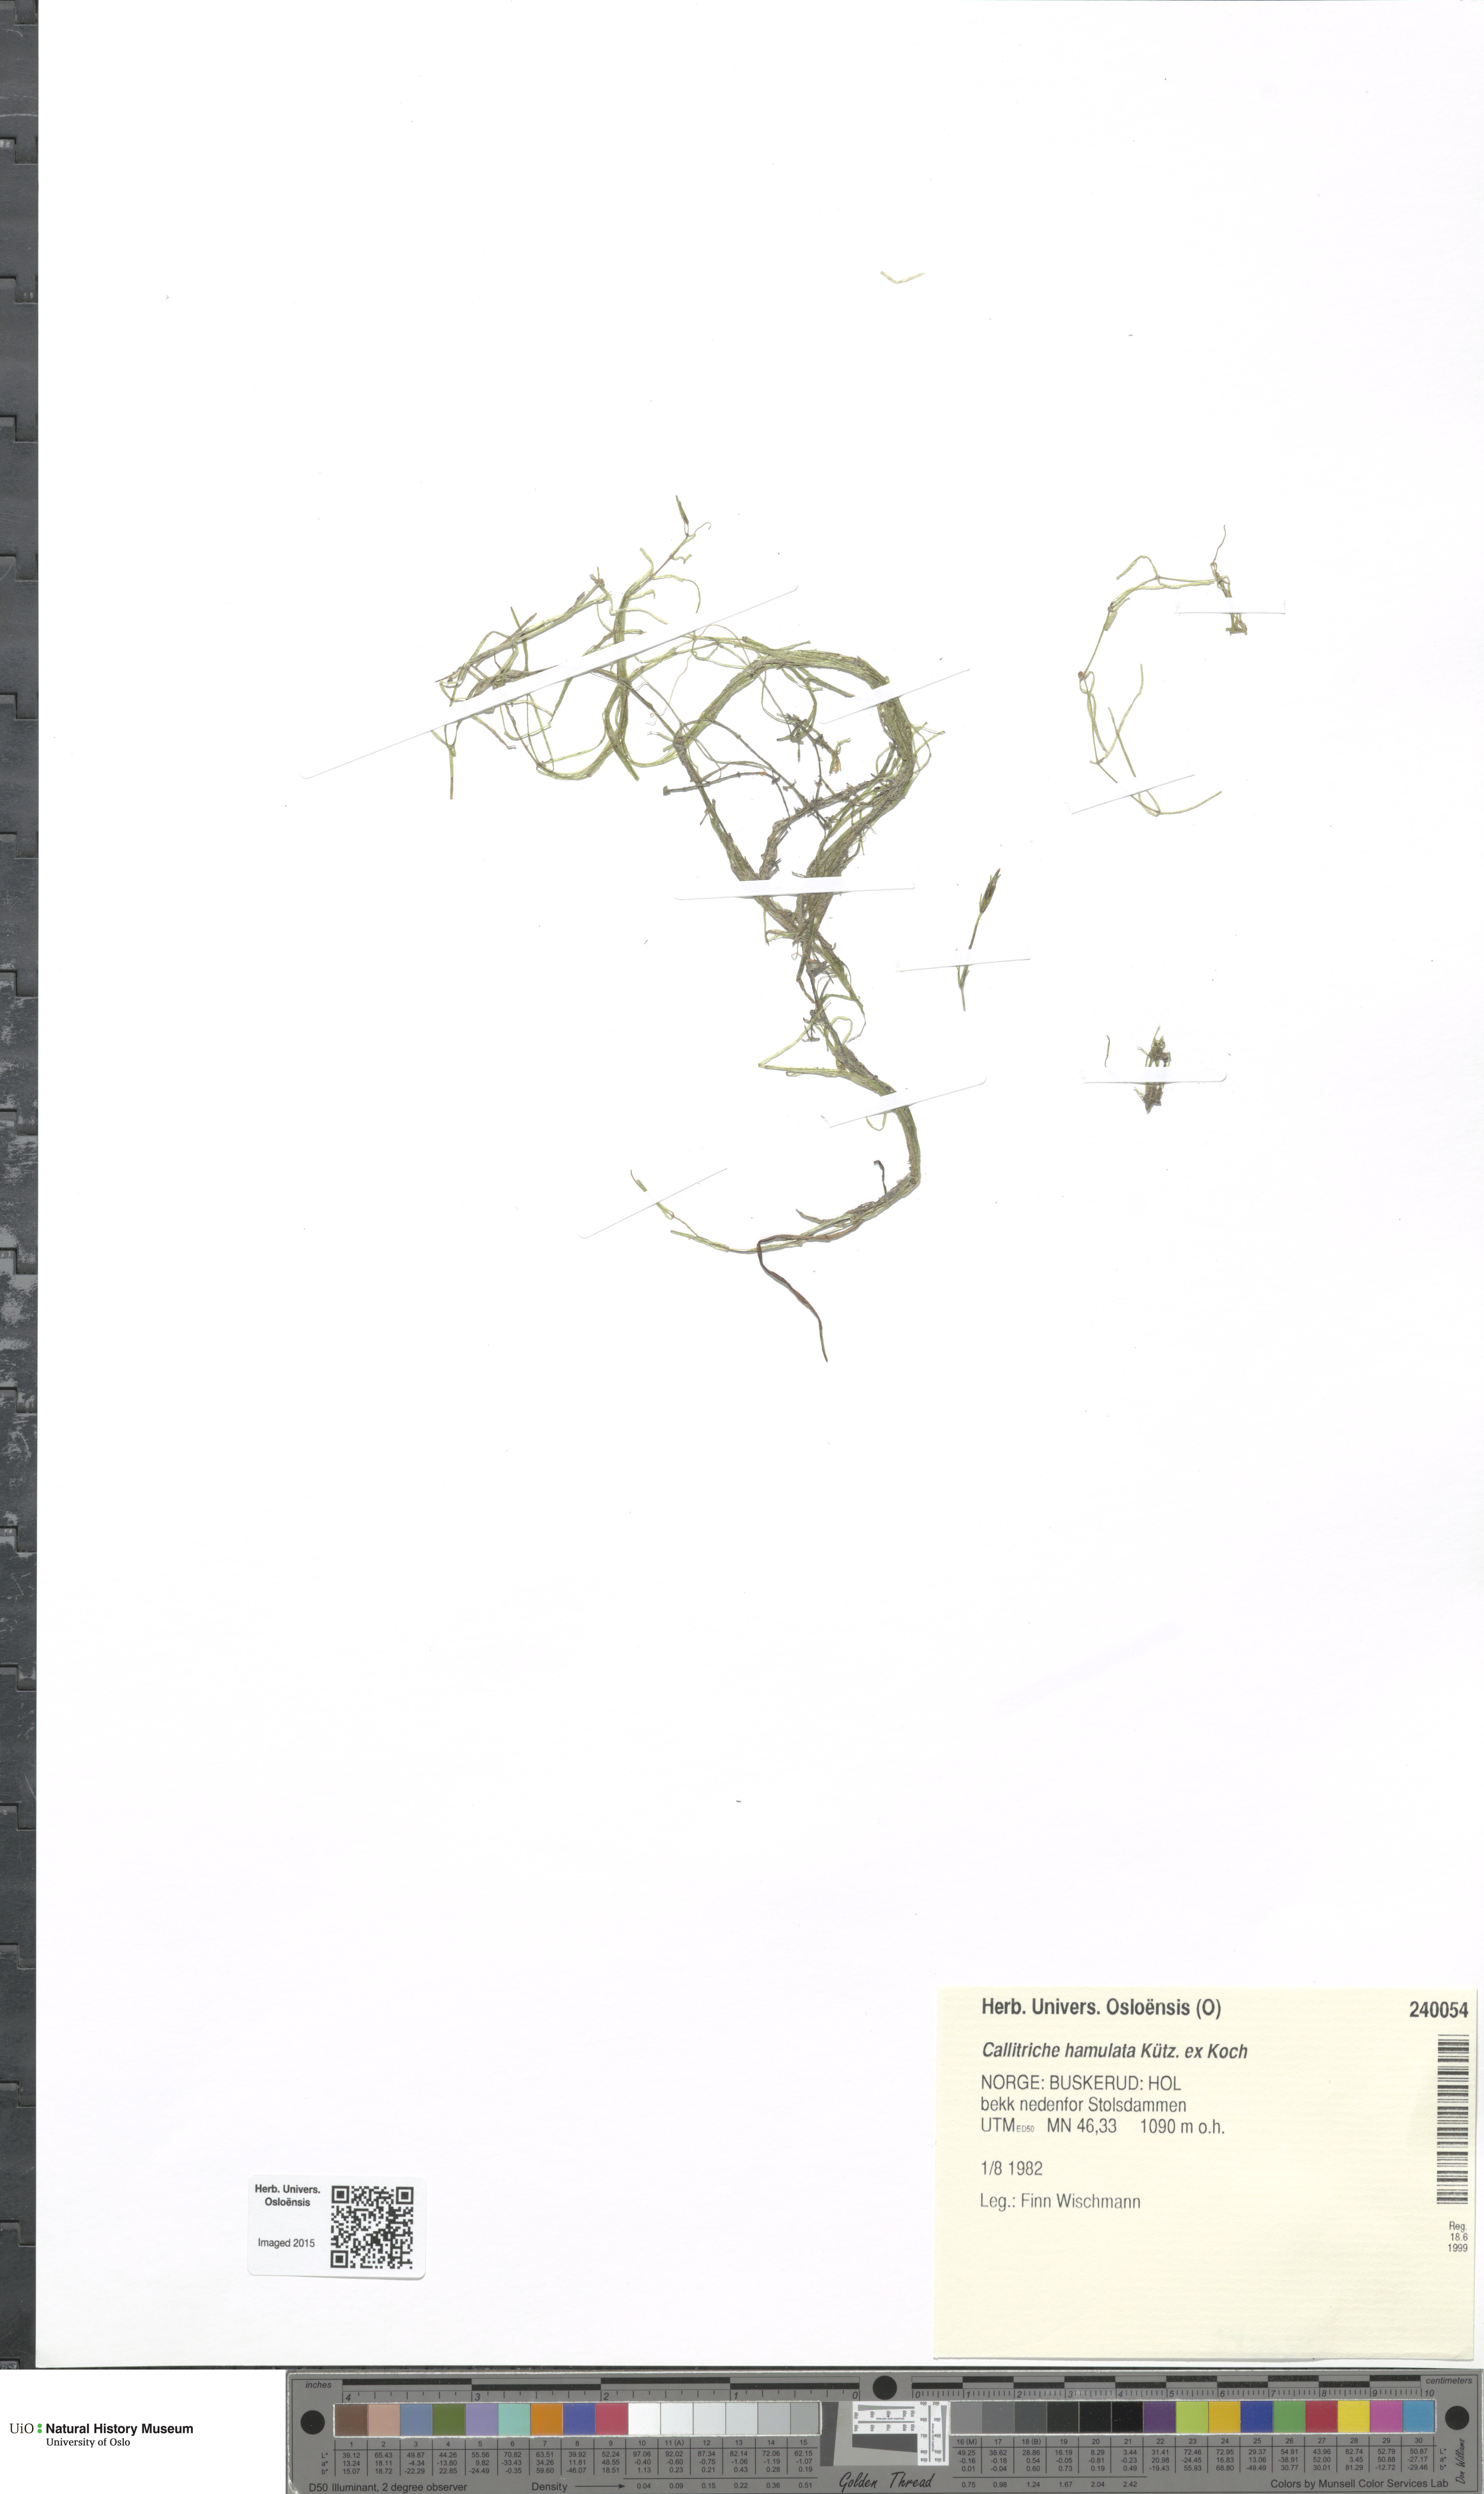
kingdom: Plantae
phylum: Tracheophyta
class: Magnoliopsida
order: Lamiales
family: Plantaginaceae
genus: Callitriche
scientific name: Callitriche hamulata
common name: Intermediate water-starwort
